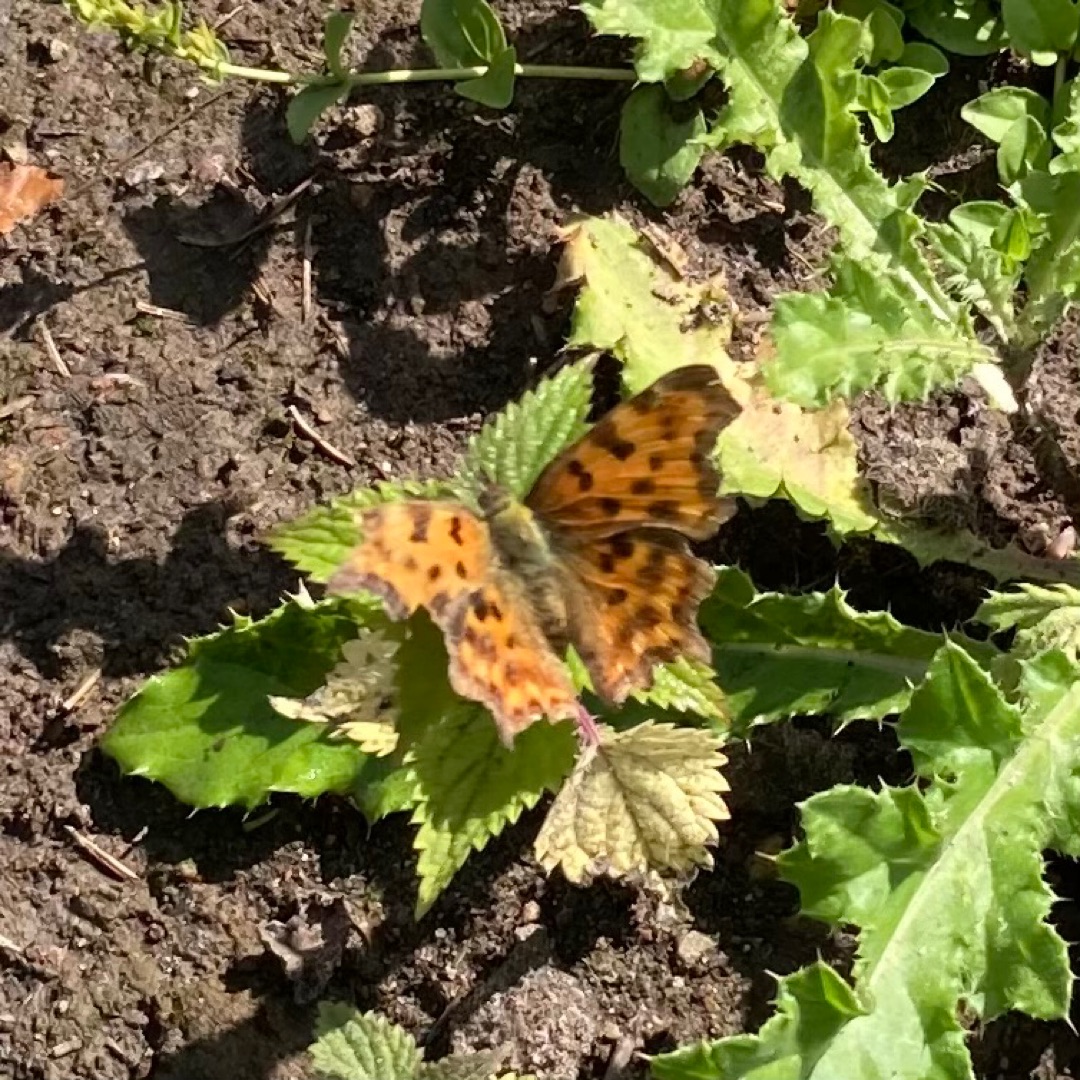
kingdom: Animalia
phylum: Arthropoda
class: Insecta
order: Lepidoptera
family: Nymphalidae
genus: Polygonia
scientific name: Polygonia c-album
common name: Det hvide C
